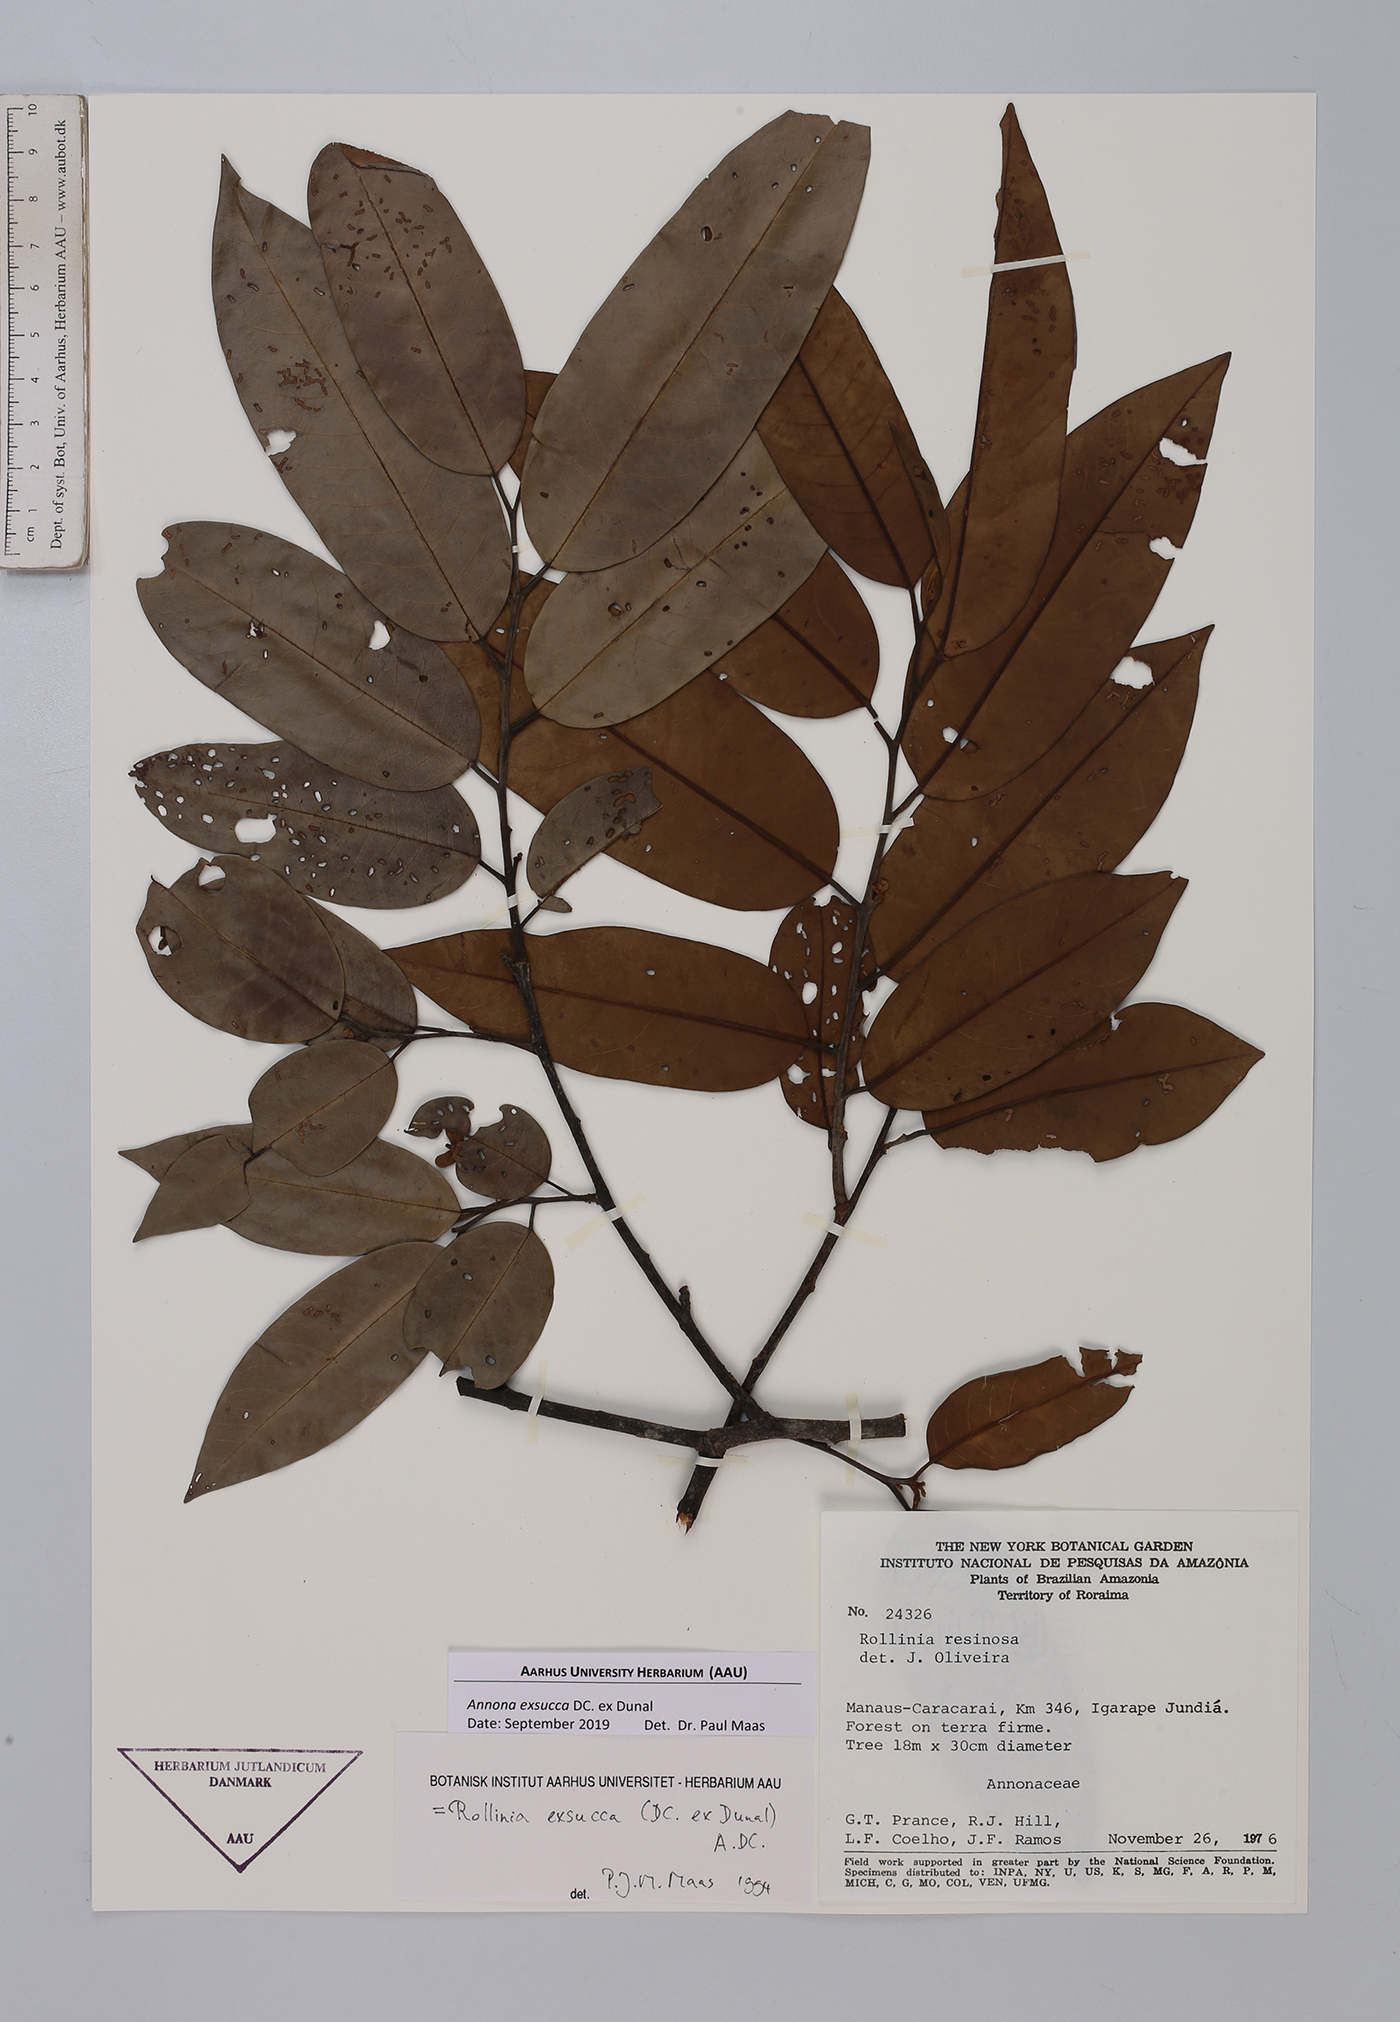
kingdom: Plantae
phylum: Tracheophyta
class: Magnoliopsida
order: Magnoliales
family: Annonaceae
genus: Annona
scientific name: Annona exsucca
